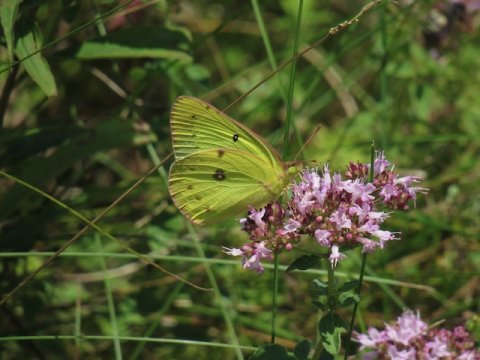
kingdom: Animalia
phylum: Arthropoda
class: Insecta
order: Lepidoptera
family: Pieridae
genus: Colias
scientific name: Colias philodice
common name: Clouded Sulphur
